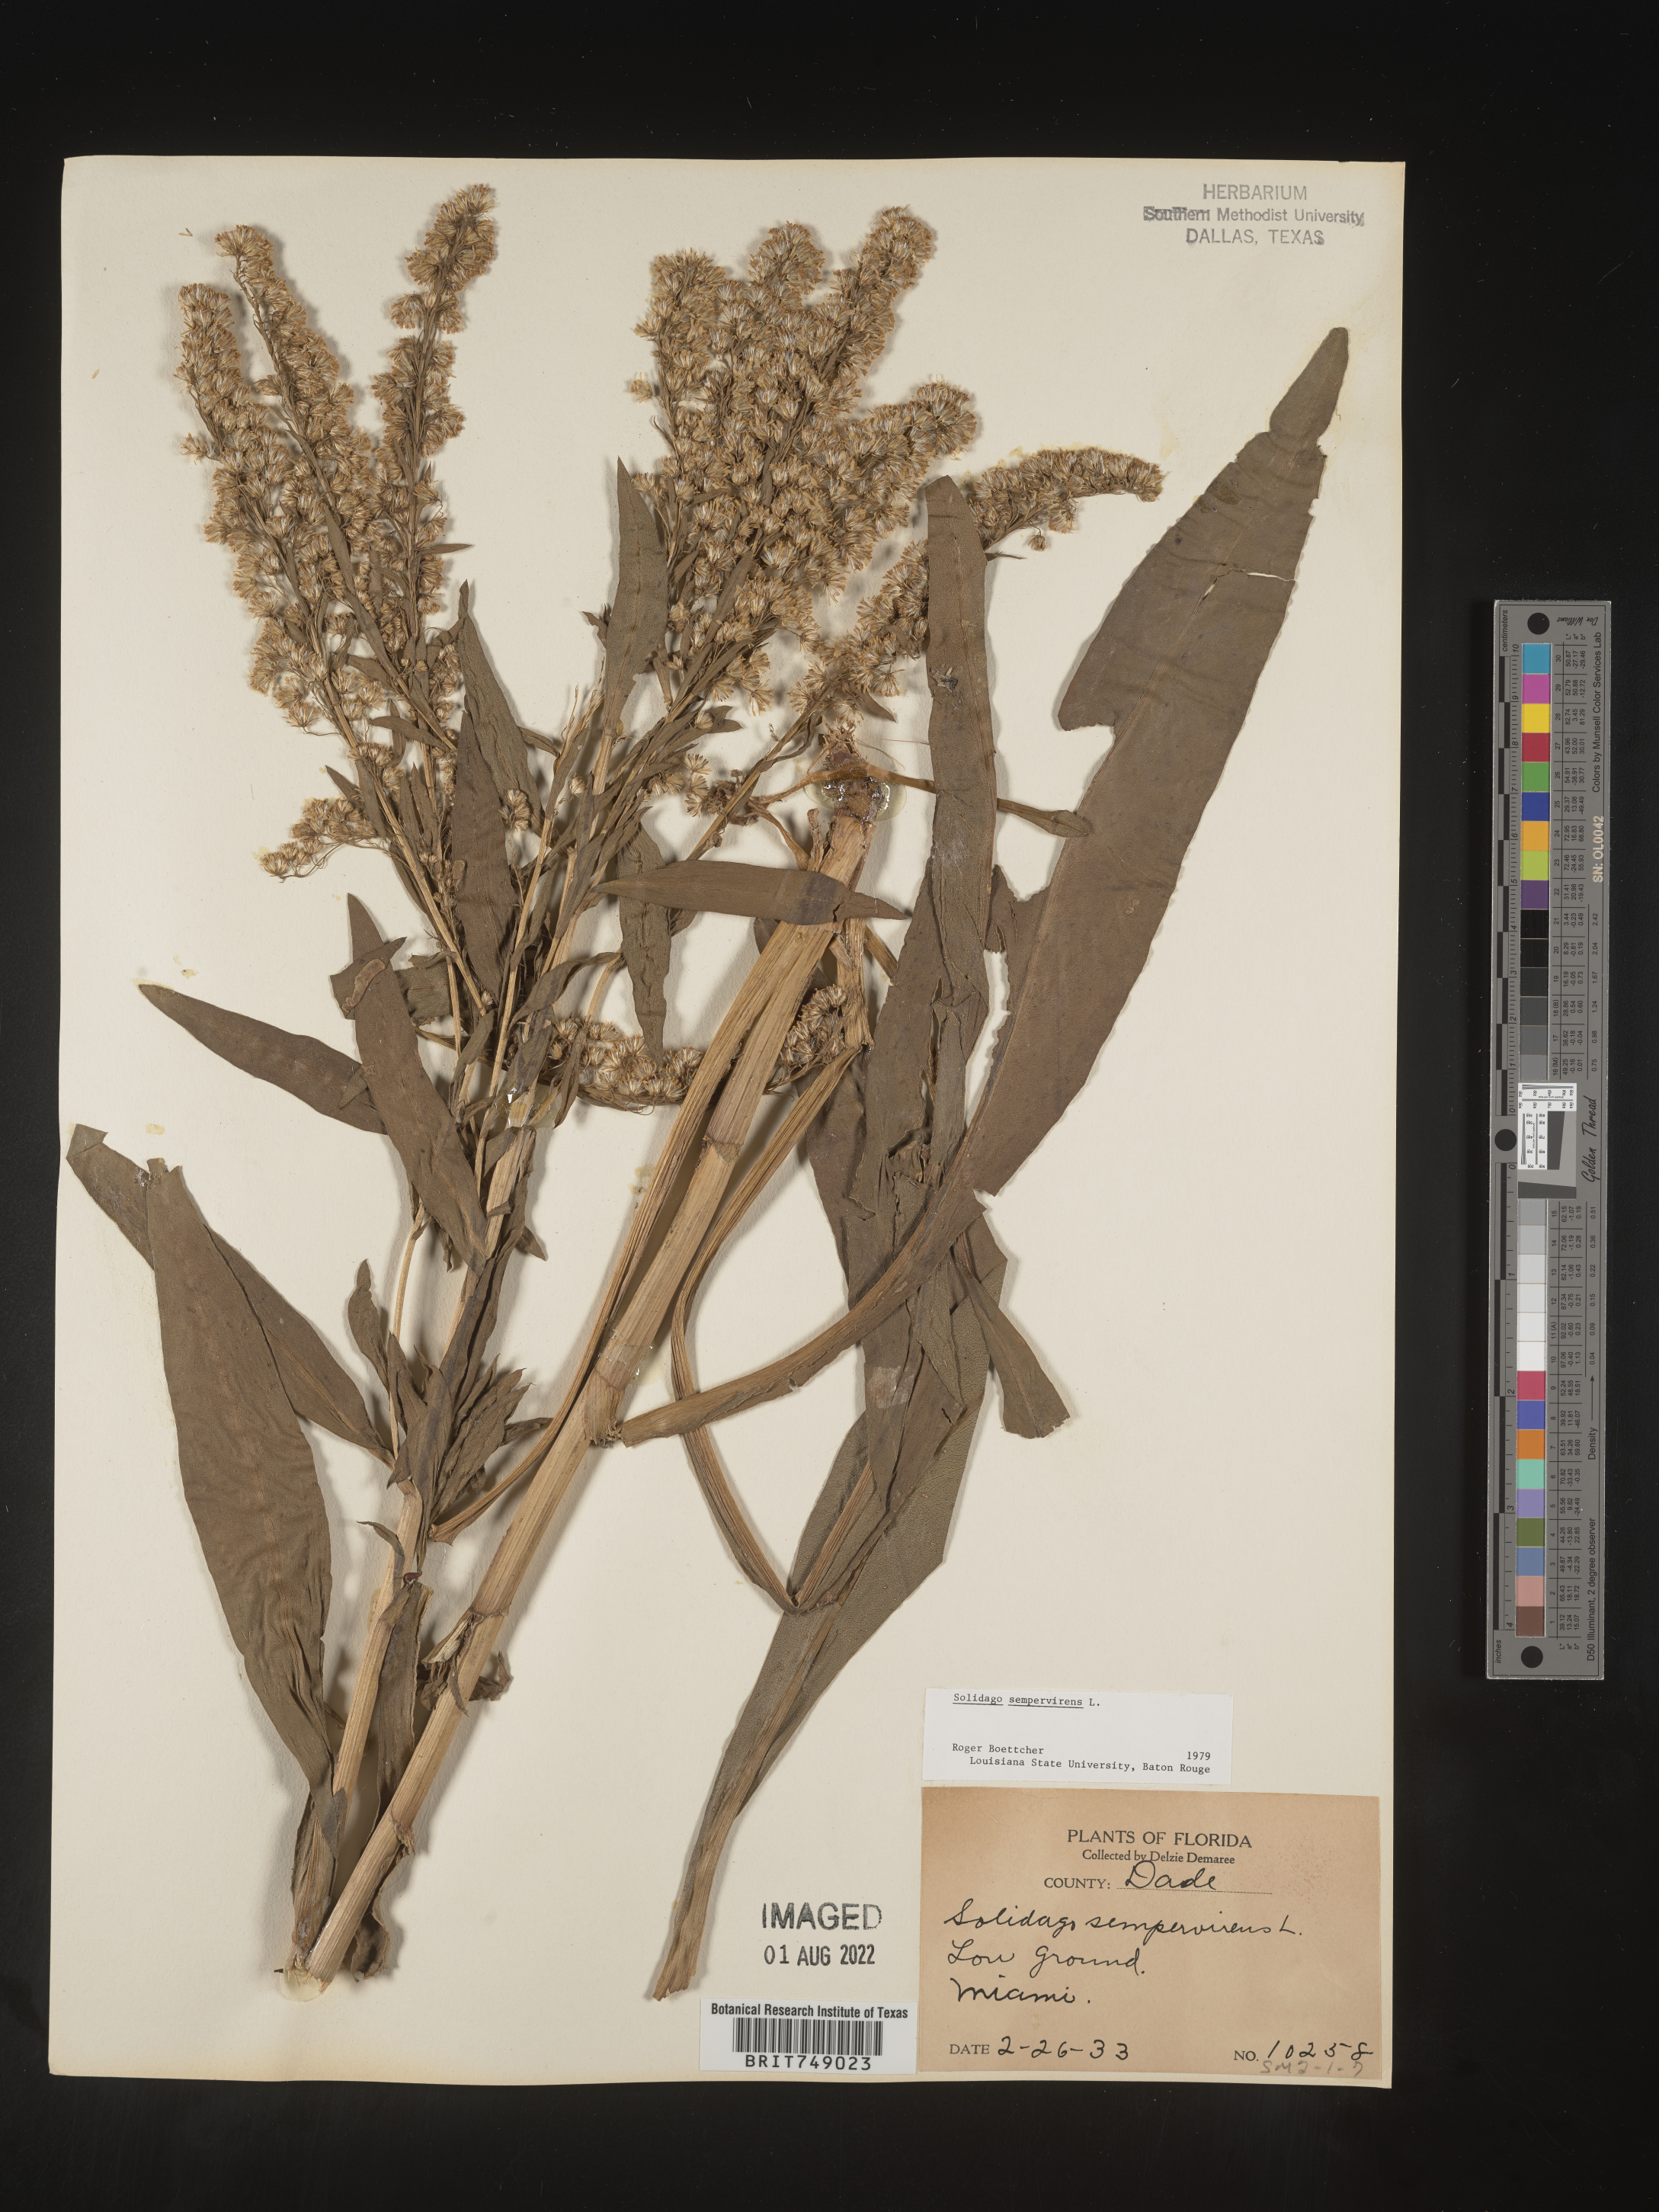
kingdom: Plantae
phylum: Tracheophyta
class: Magnoliopsida
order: Asterales
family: Asteraceae
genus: Solidago
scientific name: Solidago sempervirens
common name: Salt-marsh goldenrod
